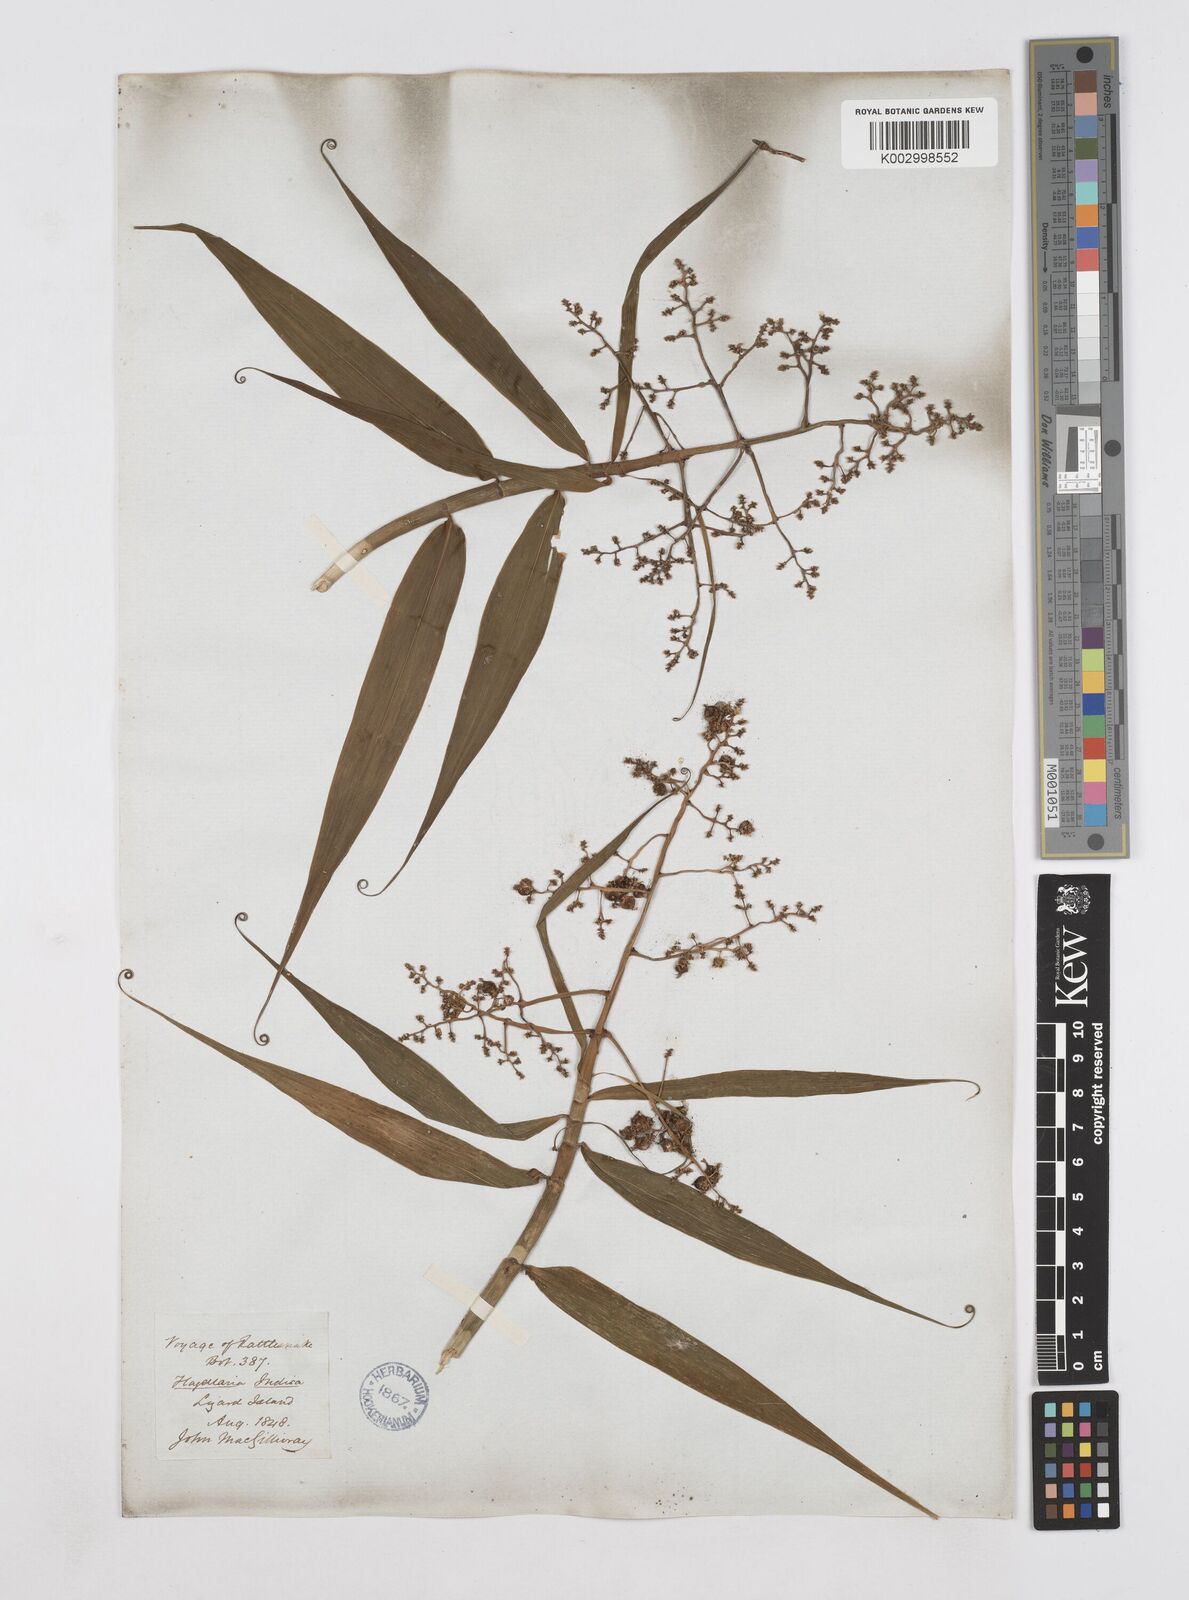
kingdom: Plantae
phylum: Tracheophyta
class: Liliopsida
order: Poales
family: Flagellariaceae
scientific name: Flagellariaceae
